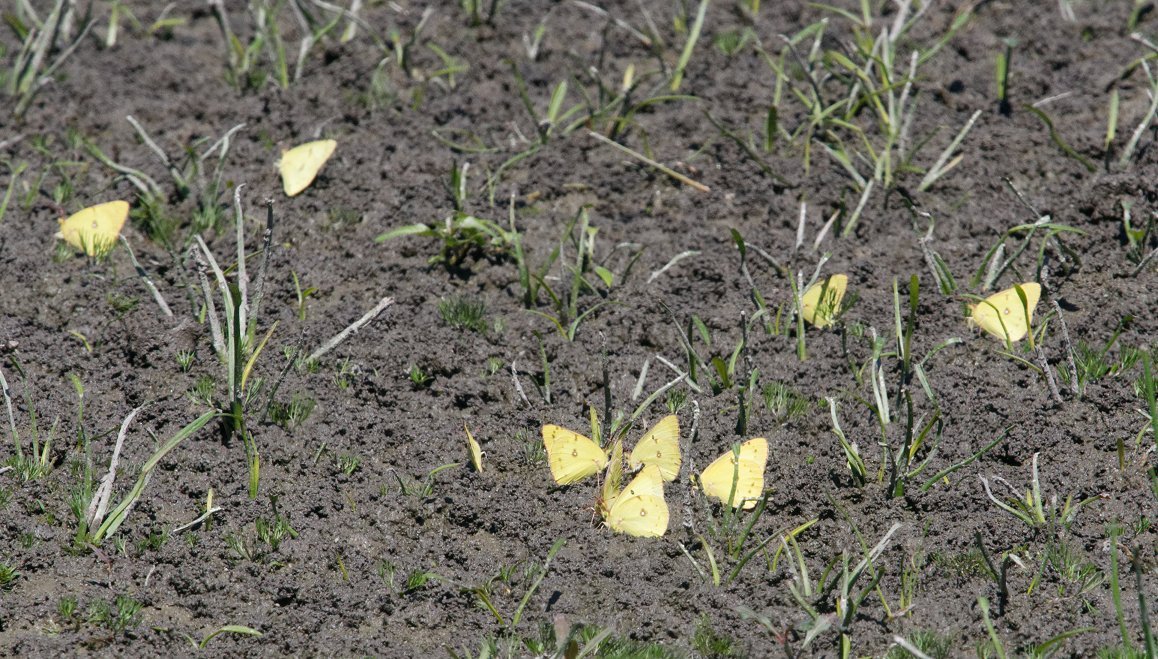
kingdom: Animalia
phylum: Arthropoda
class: Insecta
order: Lepidoptera
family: Pieridae
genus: Colias
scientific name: Colias philodice
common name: Clouded Sulphur
